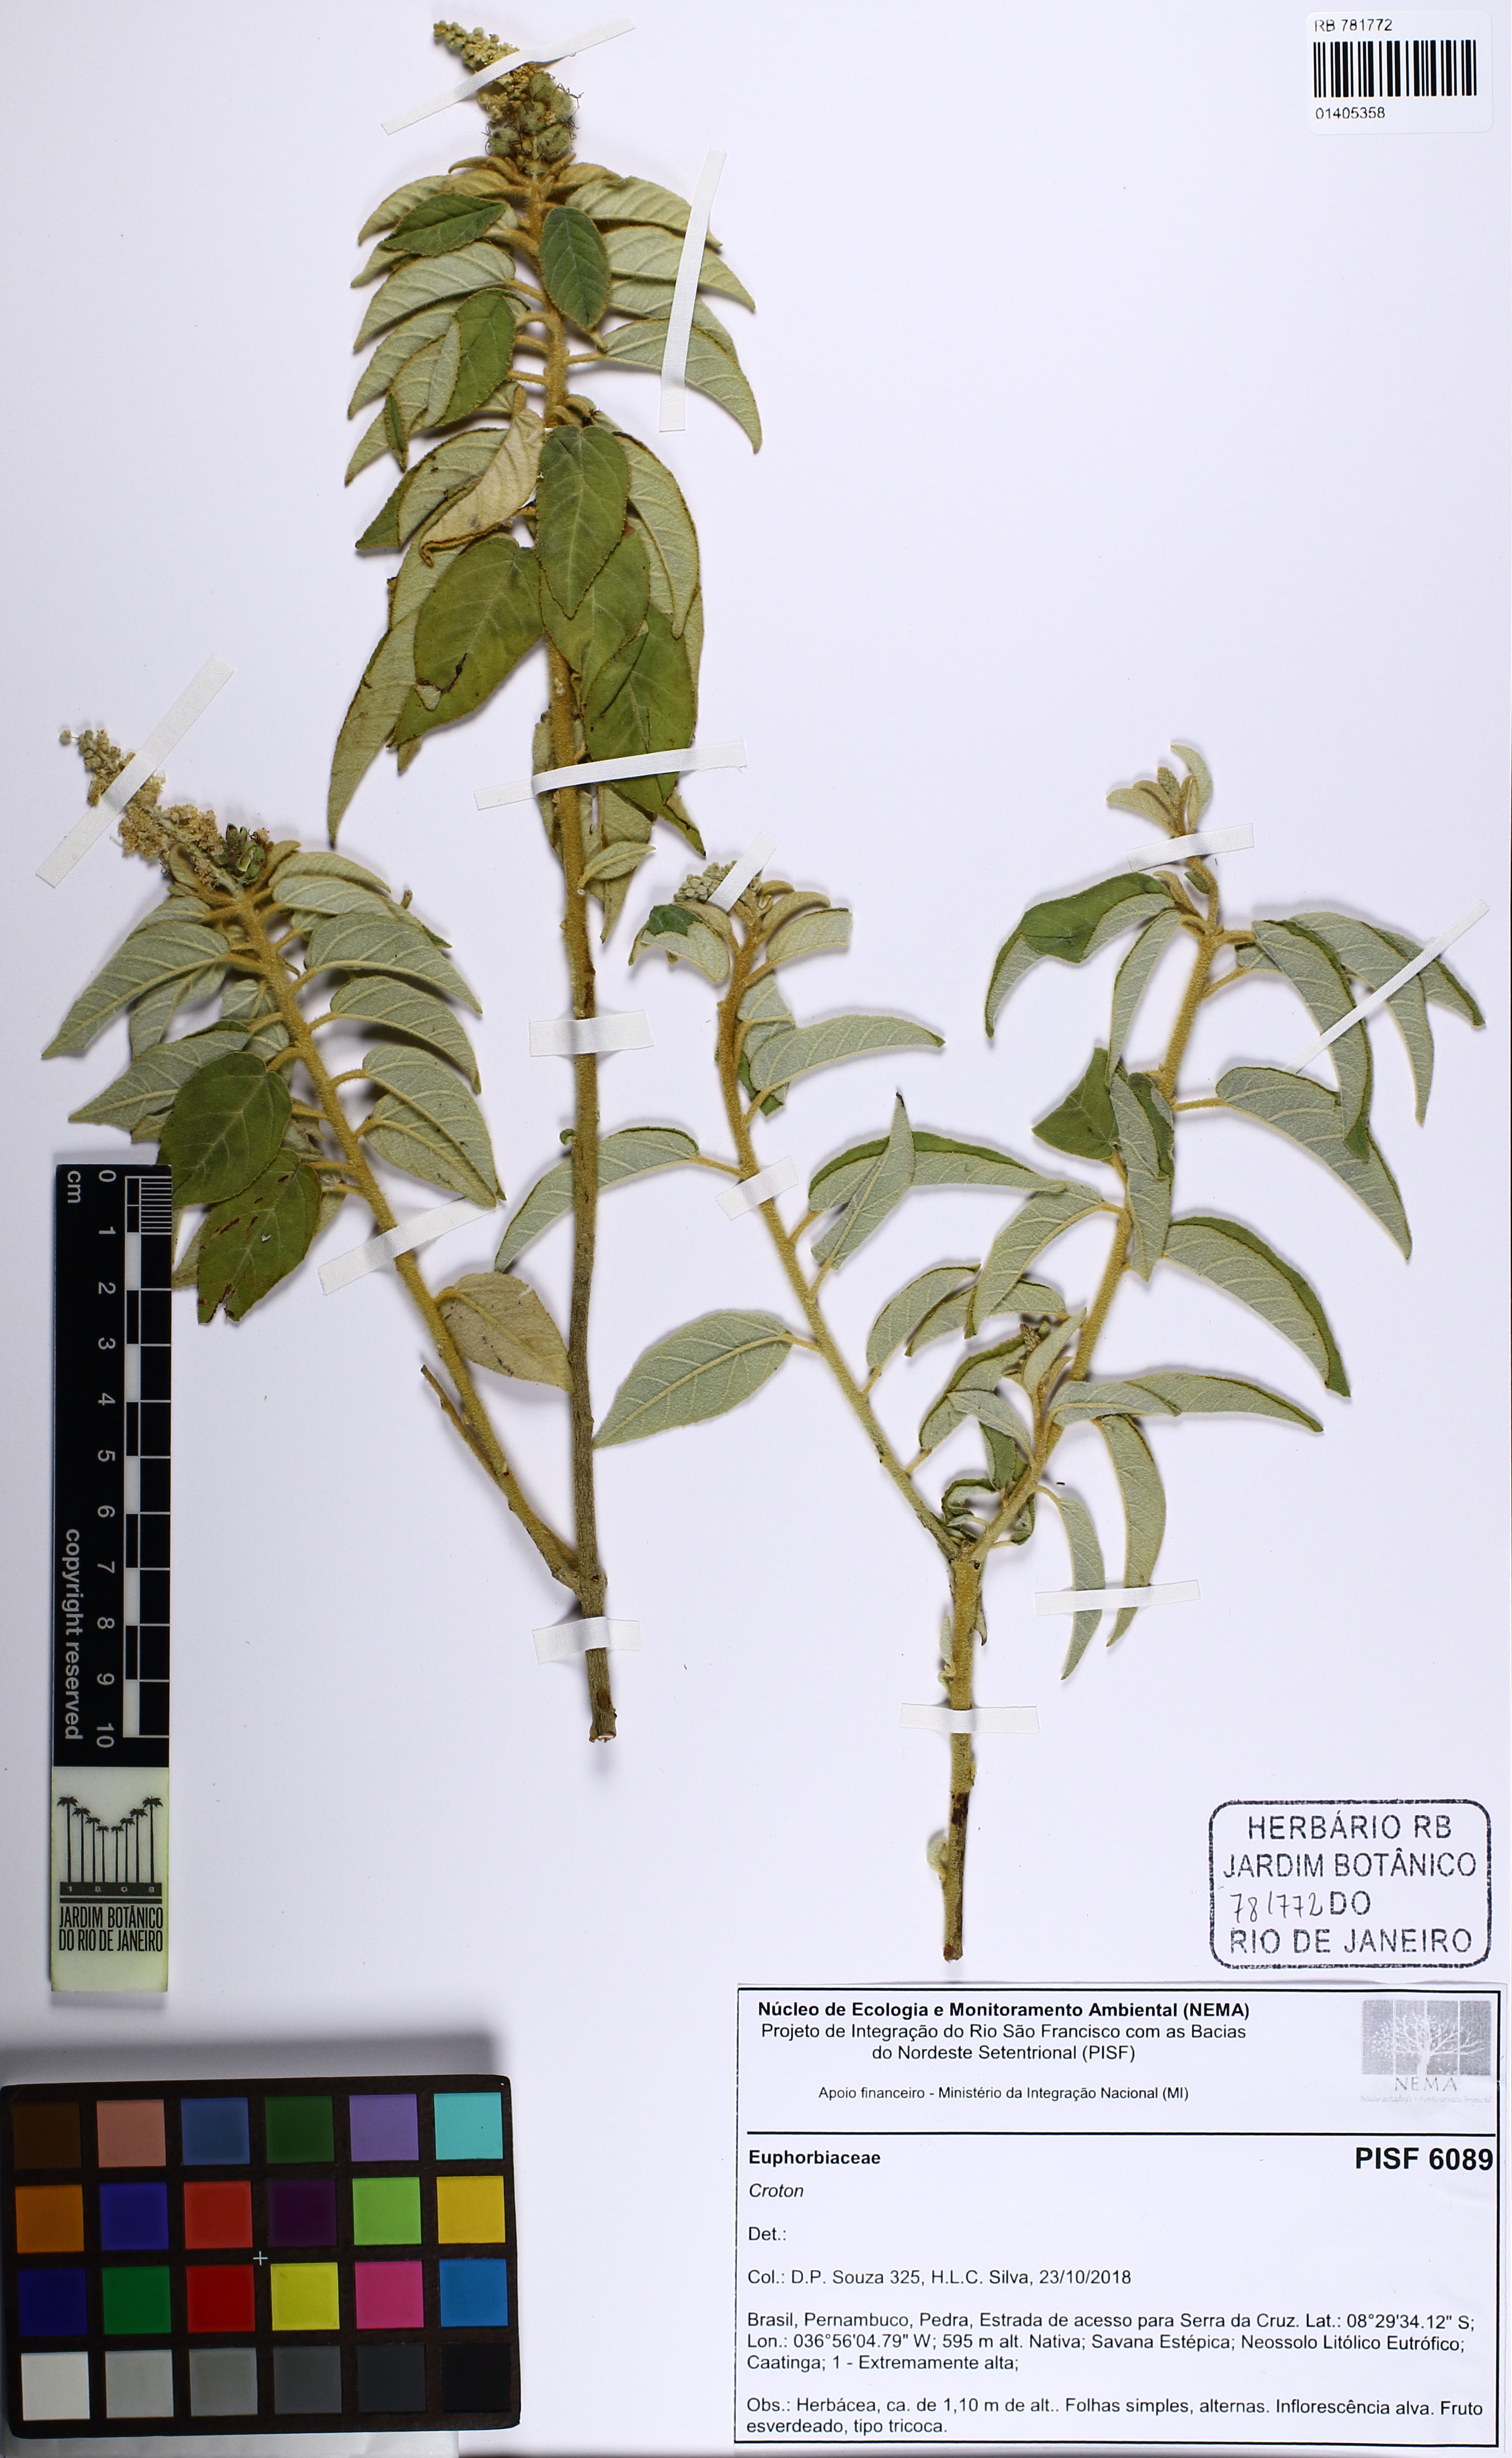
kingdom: Plantae
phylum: Tracheophyta
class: Magnoliopsida
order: Malpighiales
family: Euphorbiaceae
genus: Croton
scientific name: Croton heliotropiifolius
